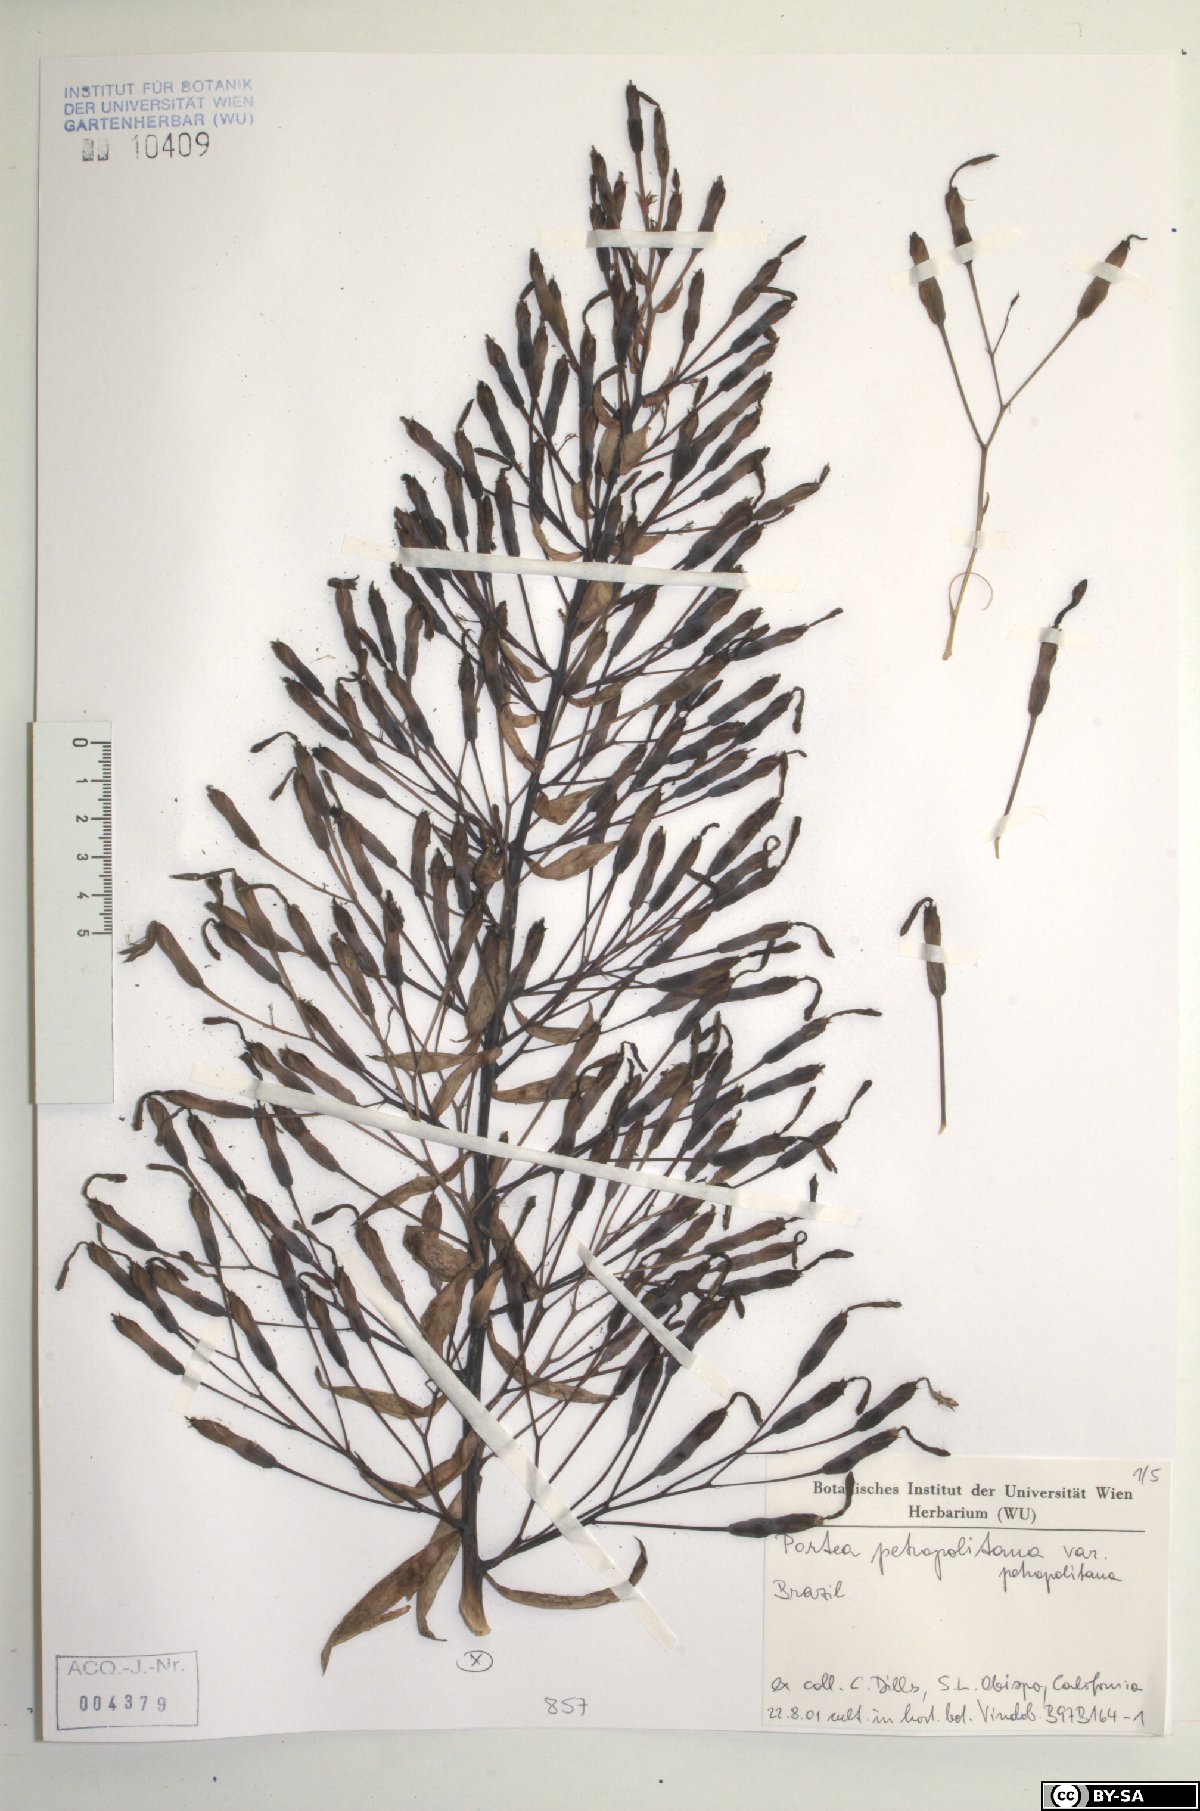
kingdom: Plantae
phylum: Tracheophyta
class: Liliopsida
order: Poales
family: Bromeliaceae
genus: Portea
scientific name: Portea petropolitana
